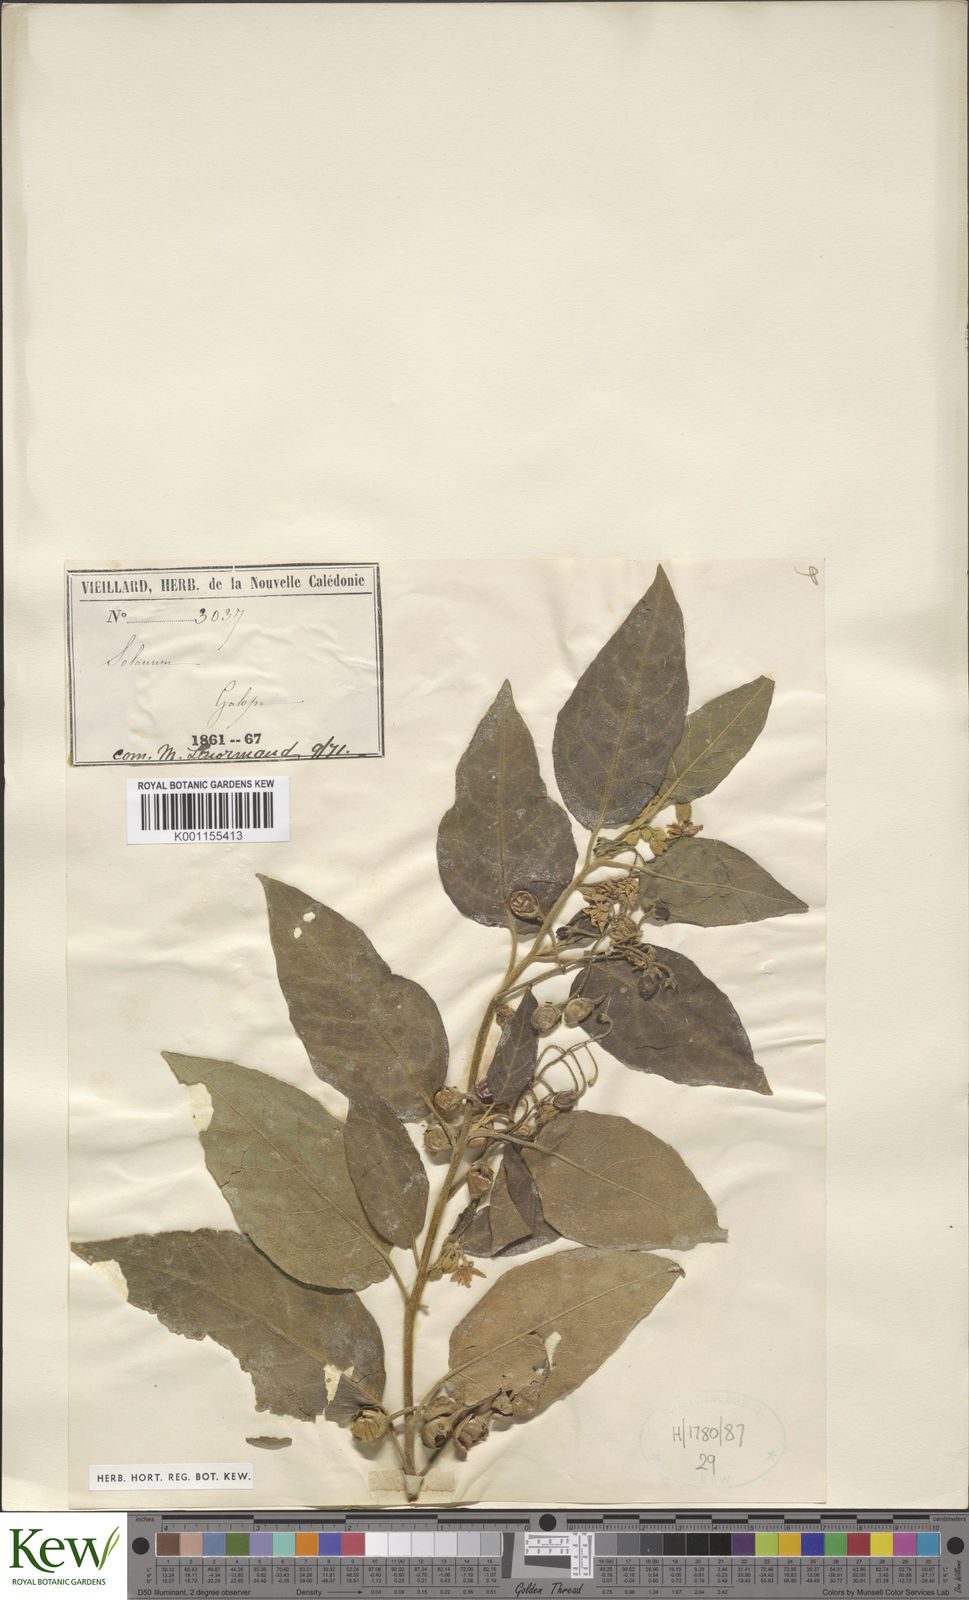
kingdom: Plantae
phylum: Tracheophyta
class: Magnoliopsida
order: Solanales
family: Solanaceae
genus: Solanum
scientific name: Solanum tetrandrum
